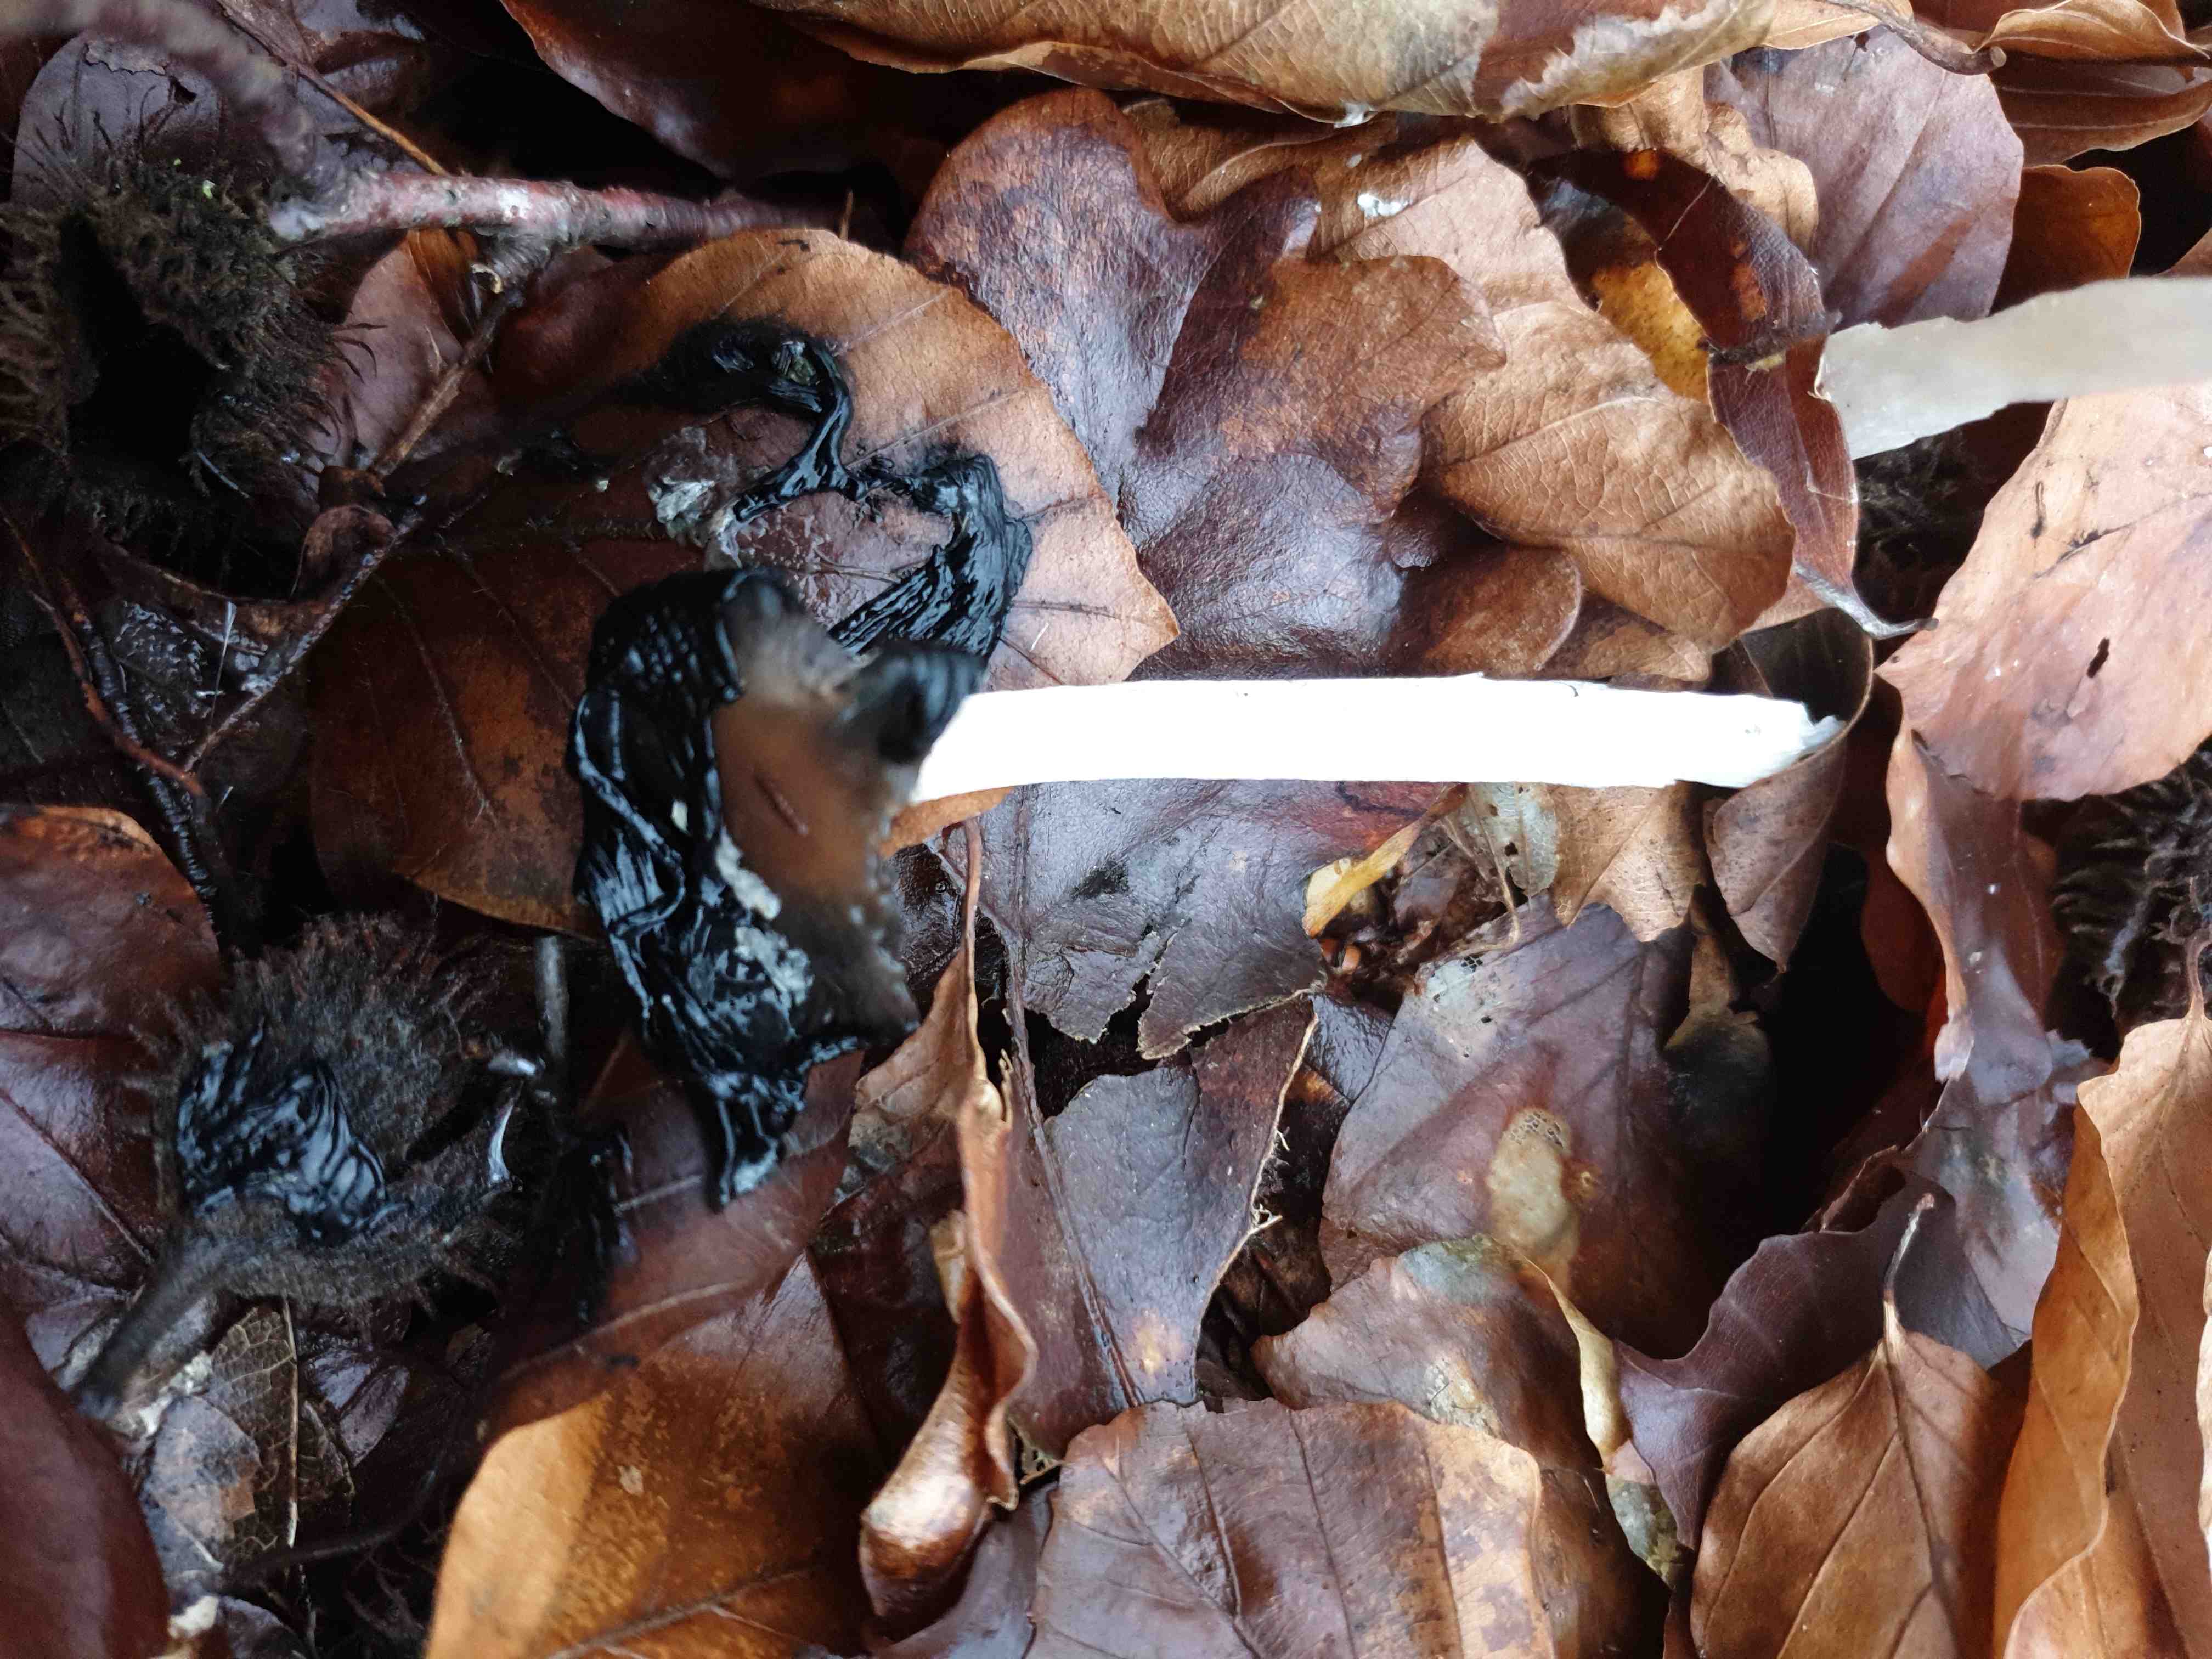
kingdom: Fungi
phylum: Basidiomycota
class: Agaricomycetes
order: Agaricales
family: Psathyrellaceae
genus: Coprinopsis
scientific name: Coprinopsis picacea
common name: skade-blækhat
